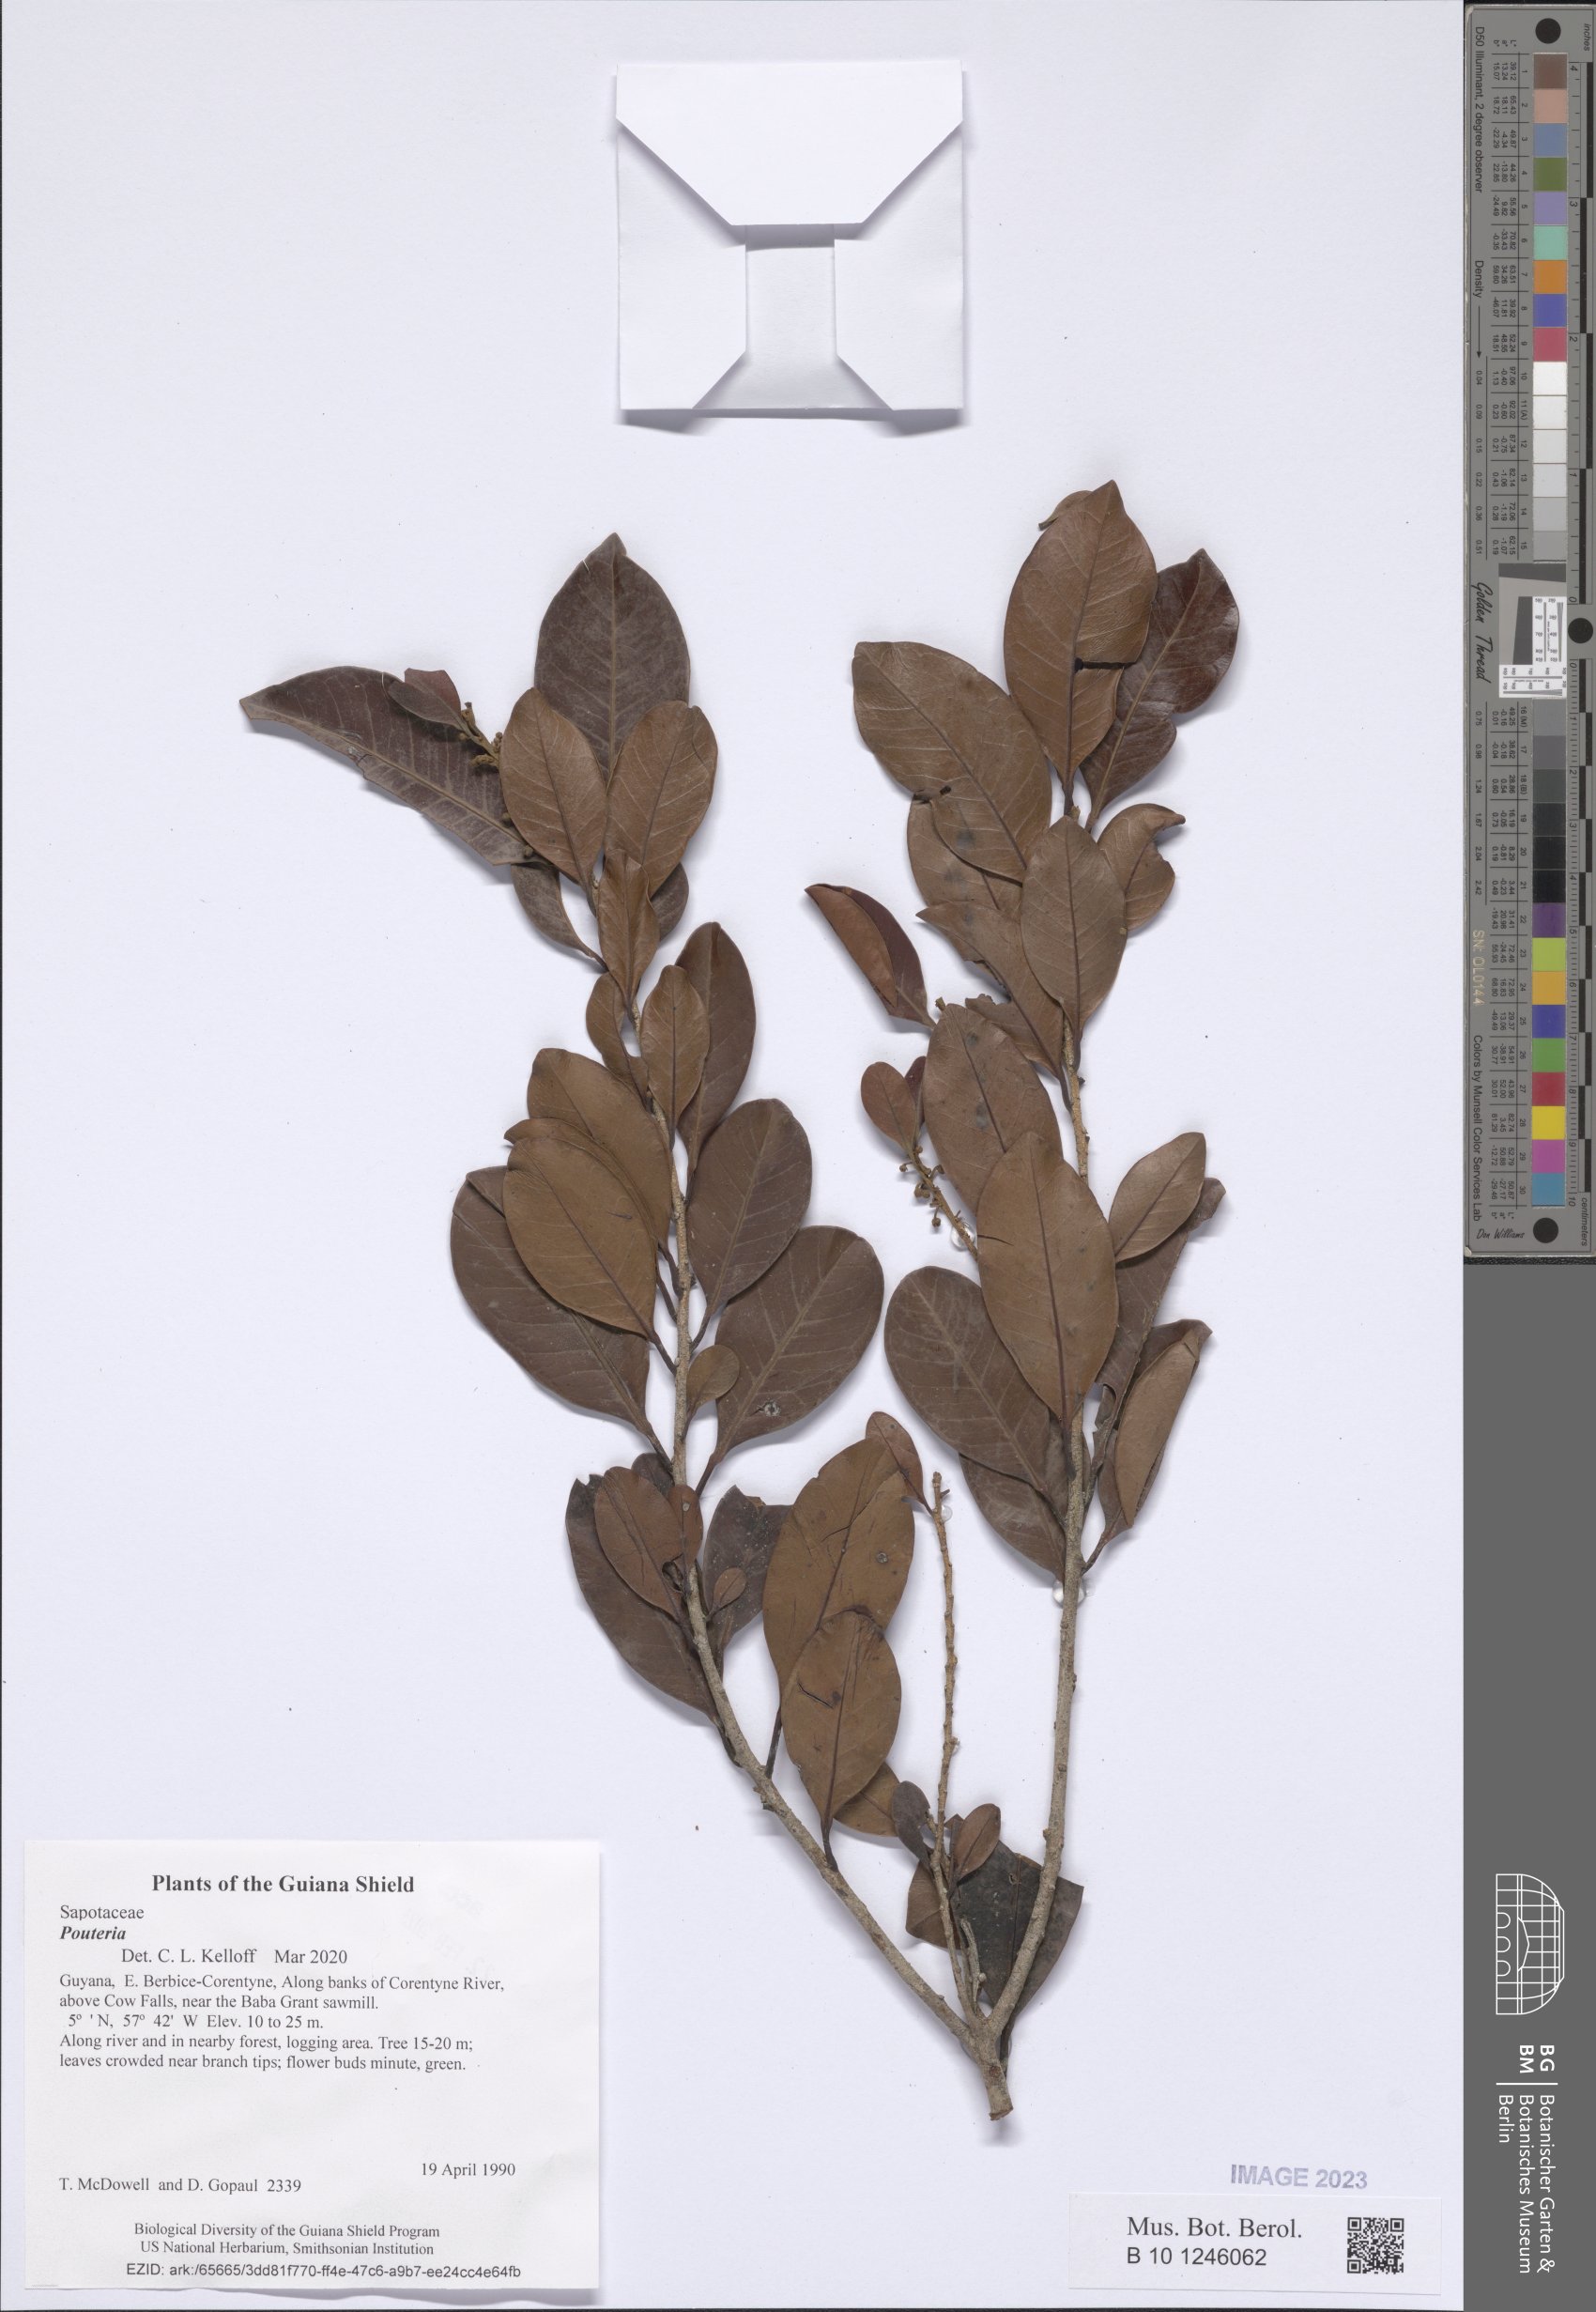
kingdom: Plantae
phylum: Tracheophyta
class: Magnoliopsida
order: Ericales
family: Sapotaceae
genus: Pouteria
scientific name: Pouteria
